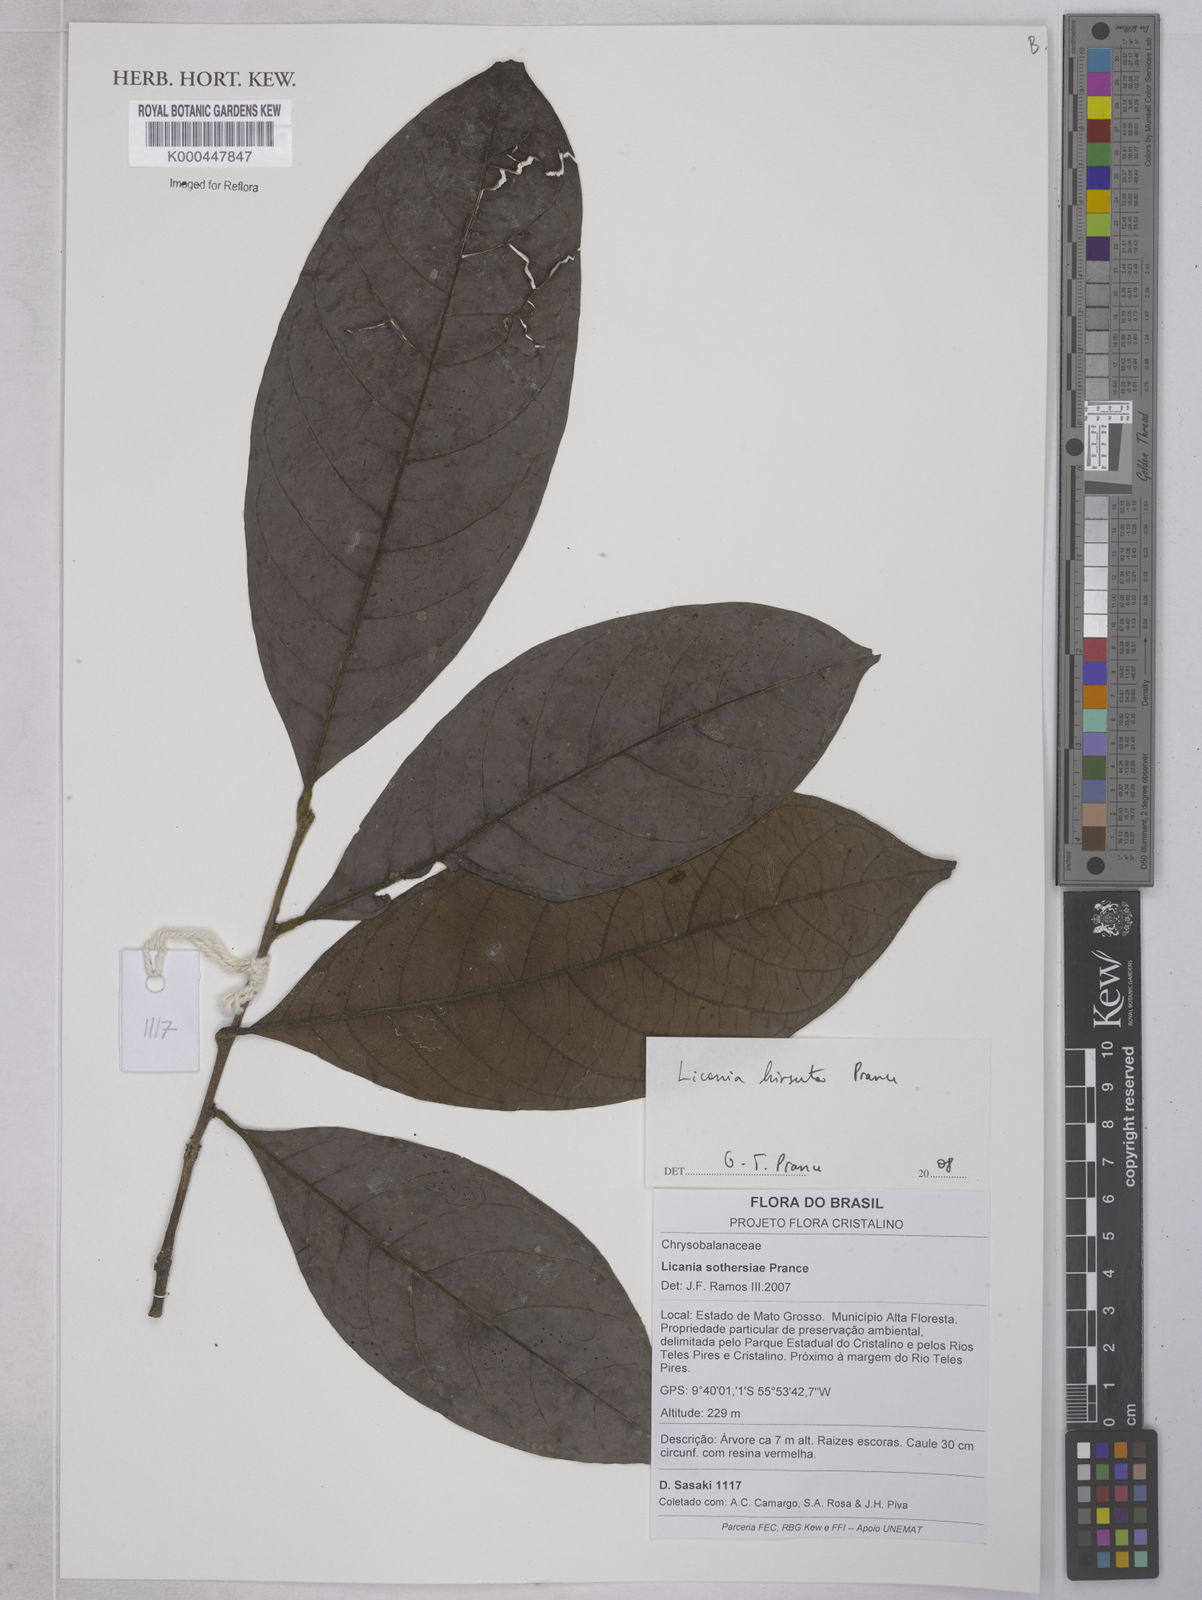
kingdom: Plantae
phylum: Tracheophyta
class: Magnoliopsida
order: Malpighiales
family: Chrysobalanaceae
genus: Hymenopus
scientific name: Hymenopus hirsutus
